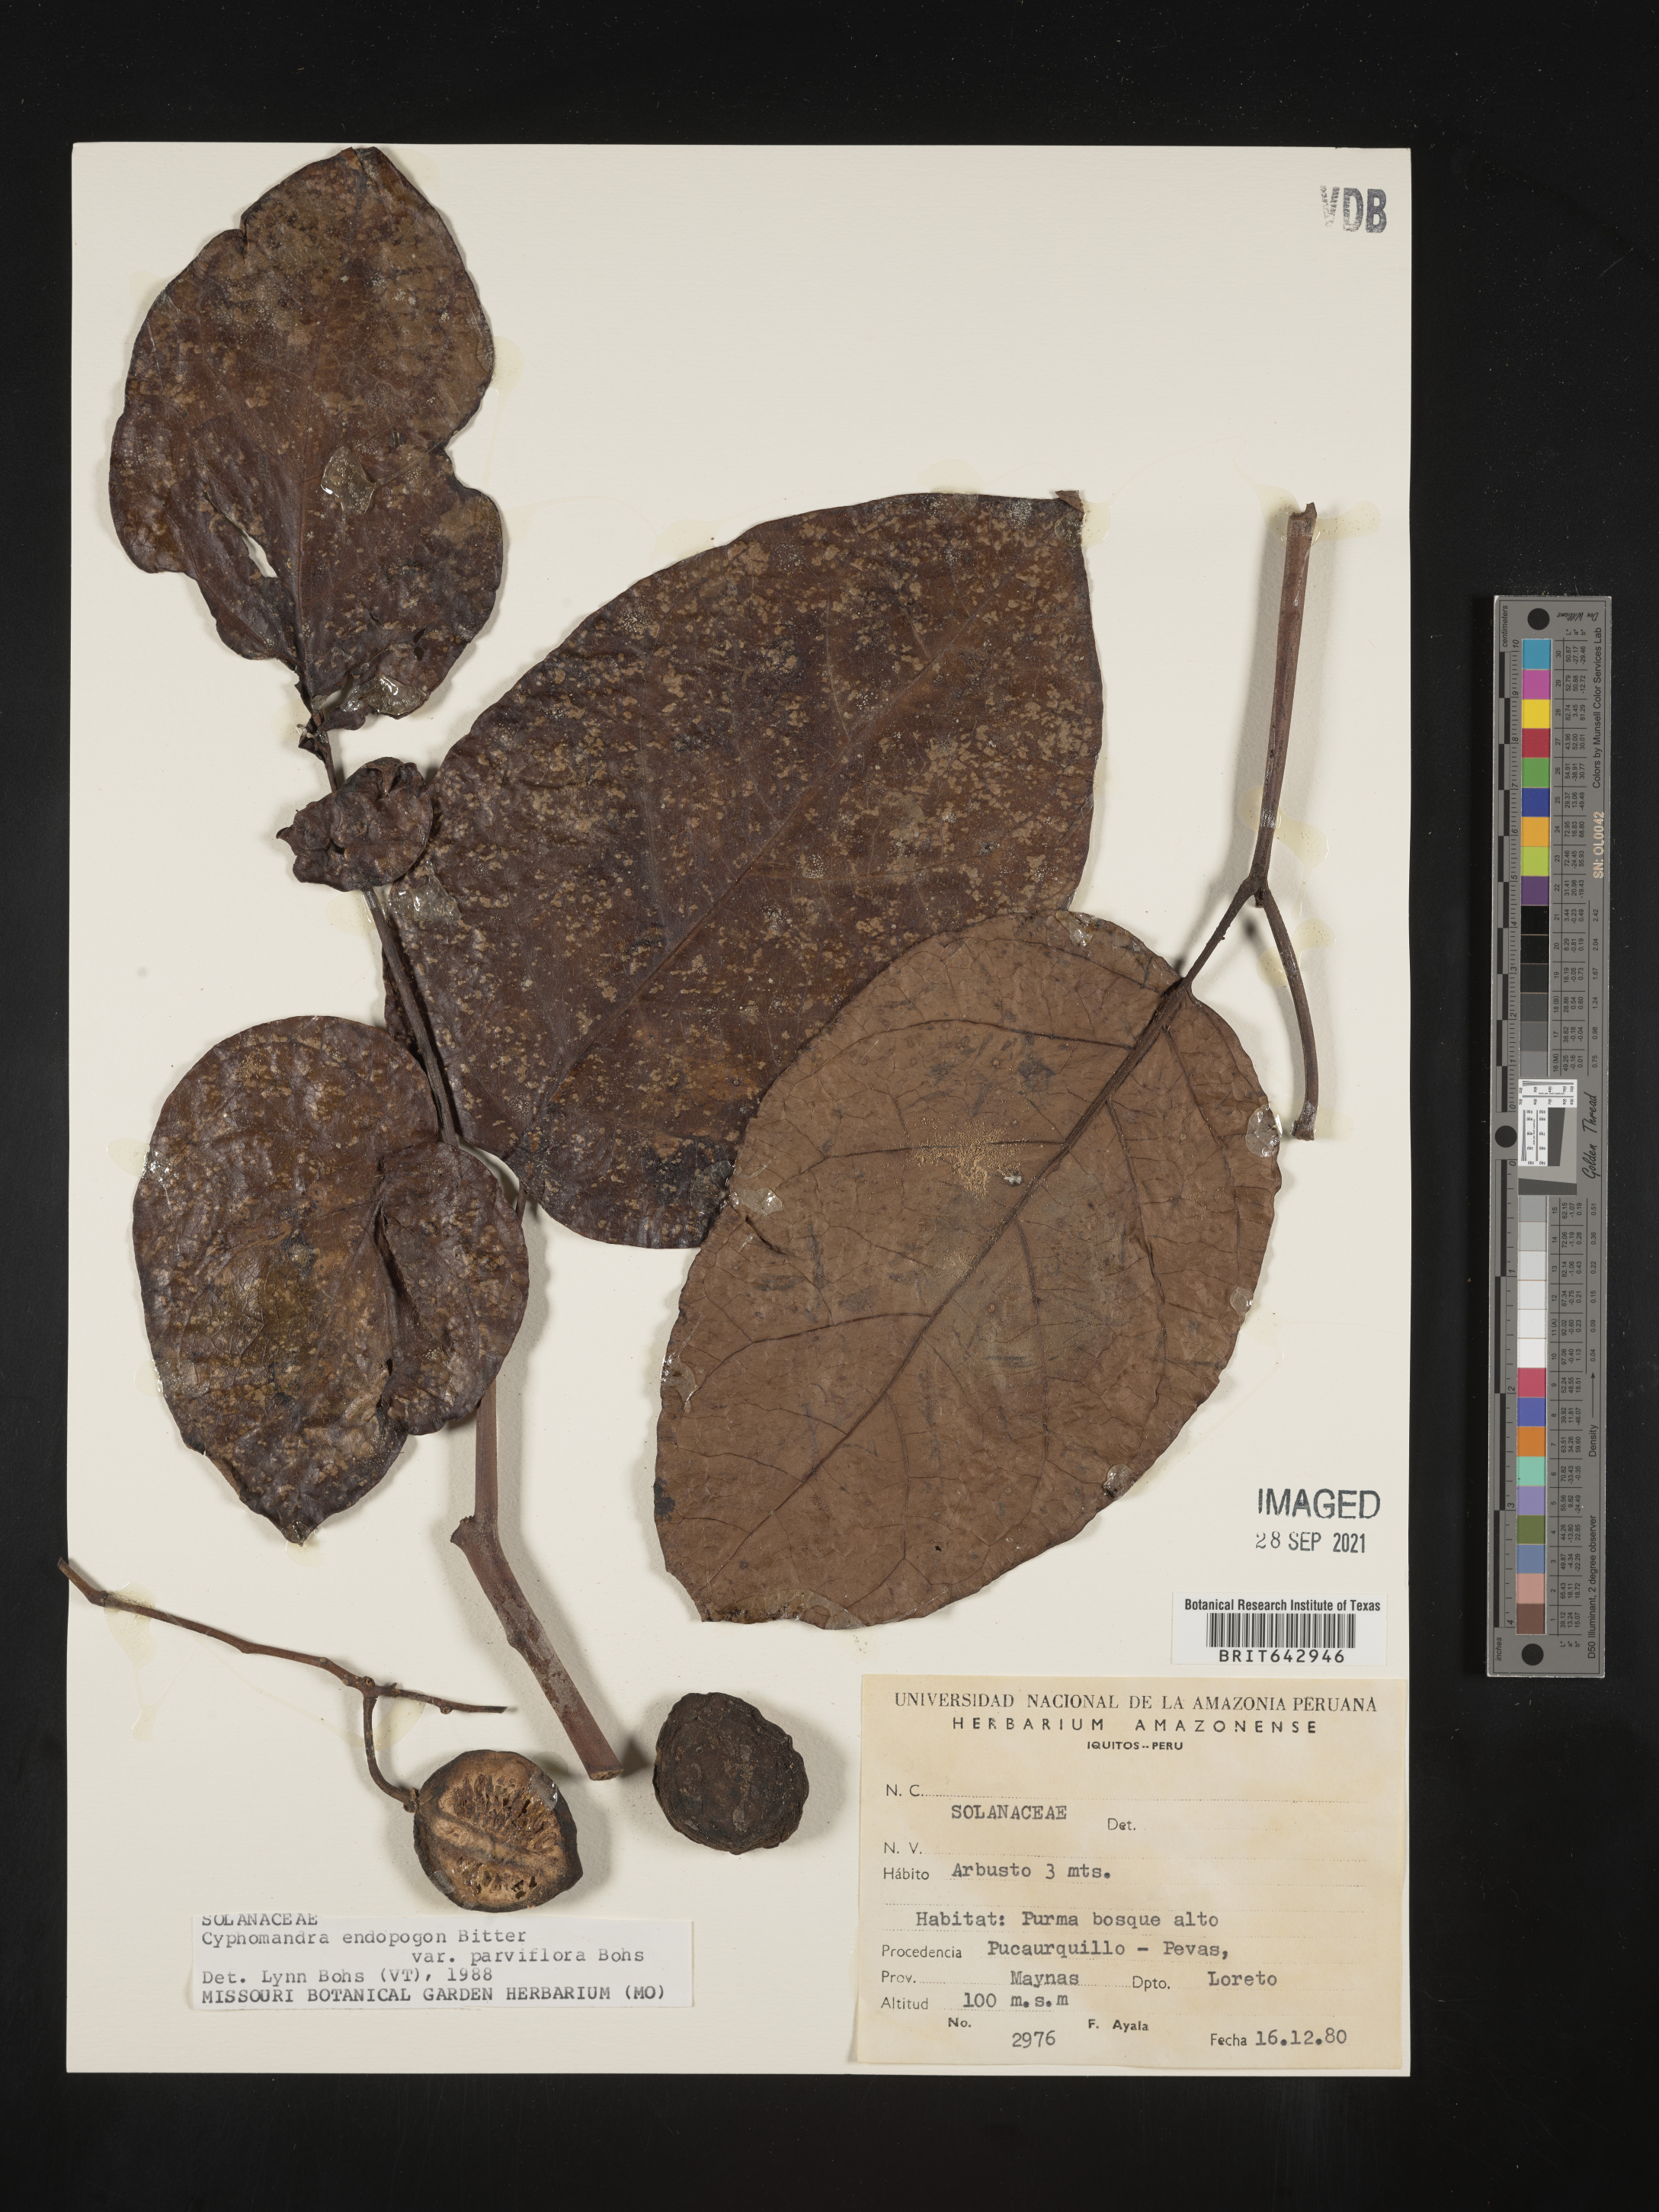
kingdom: Plantae
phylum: Tracheophyta
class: Magnoliopsida
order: Solanales
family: Solanaceae
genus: Solanum
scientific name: Solanum
